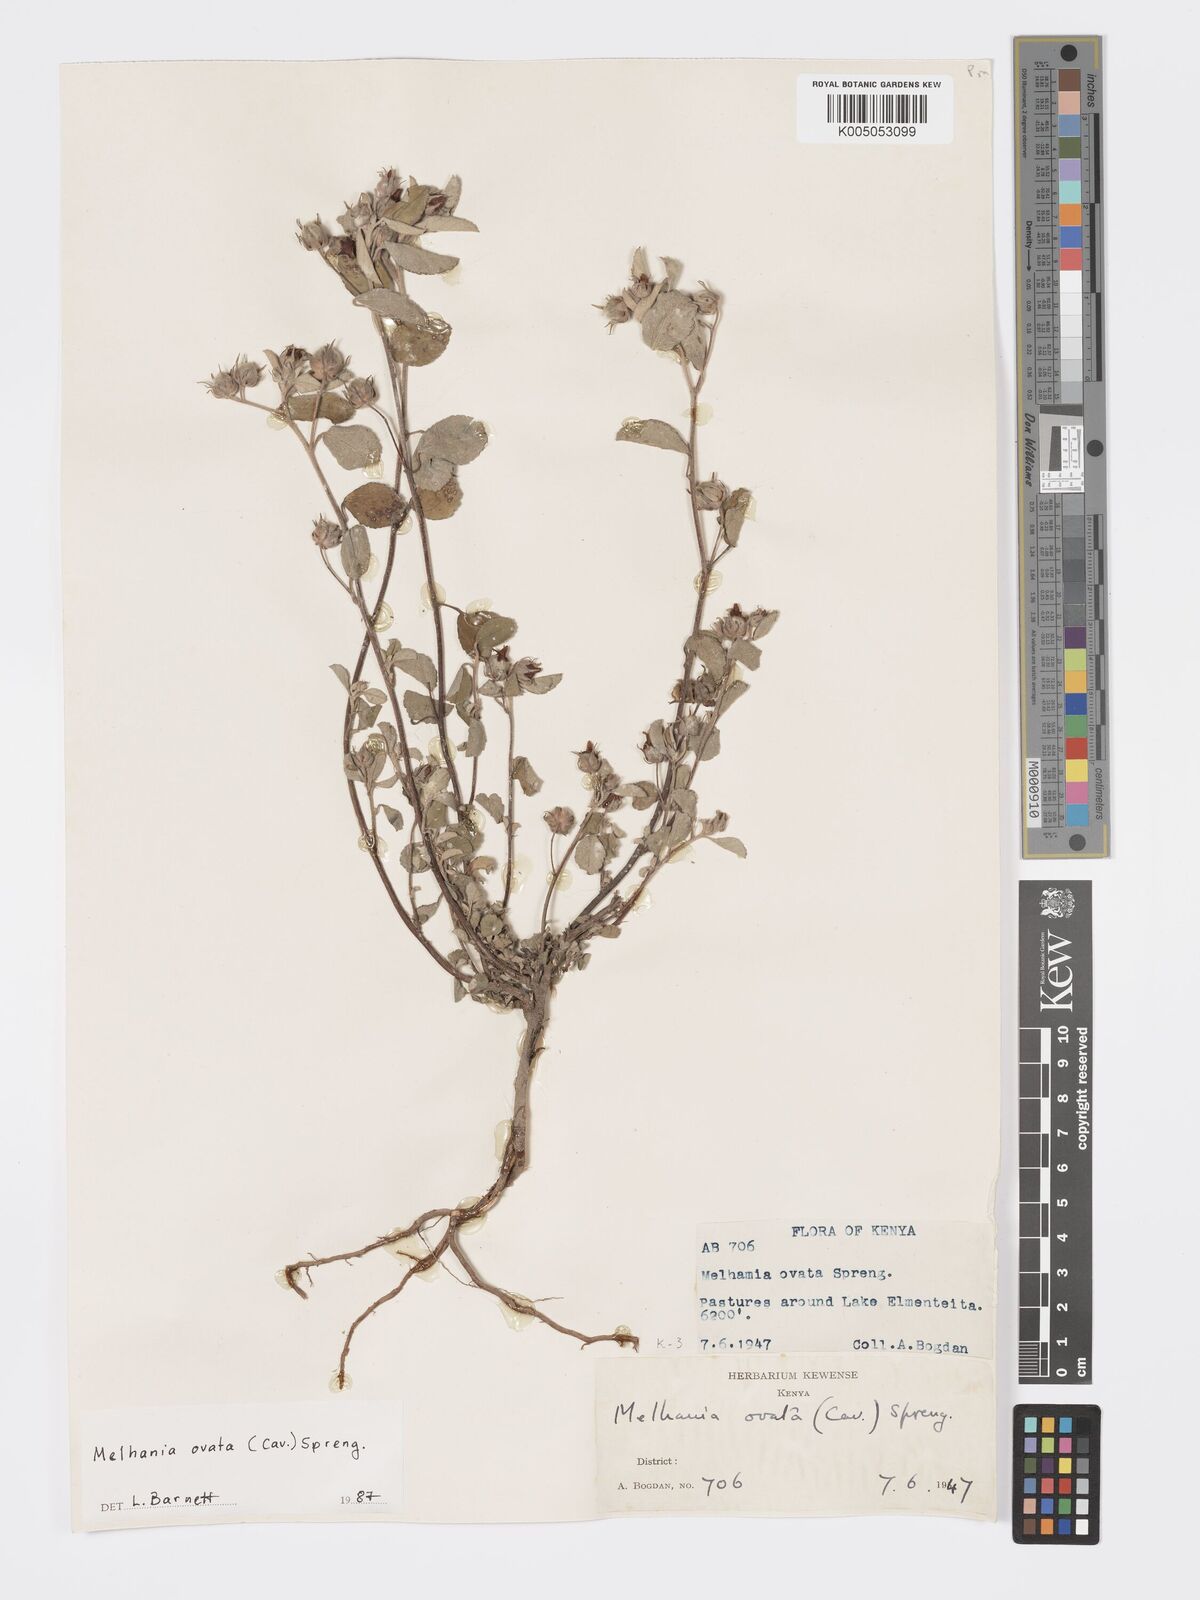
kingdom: Plantae
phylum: Tracheophyta
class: Magnoliopsida
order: Malvales
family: Malvaceae
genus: Melhania
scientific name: Melhania ovata
